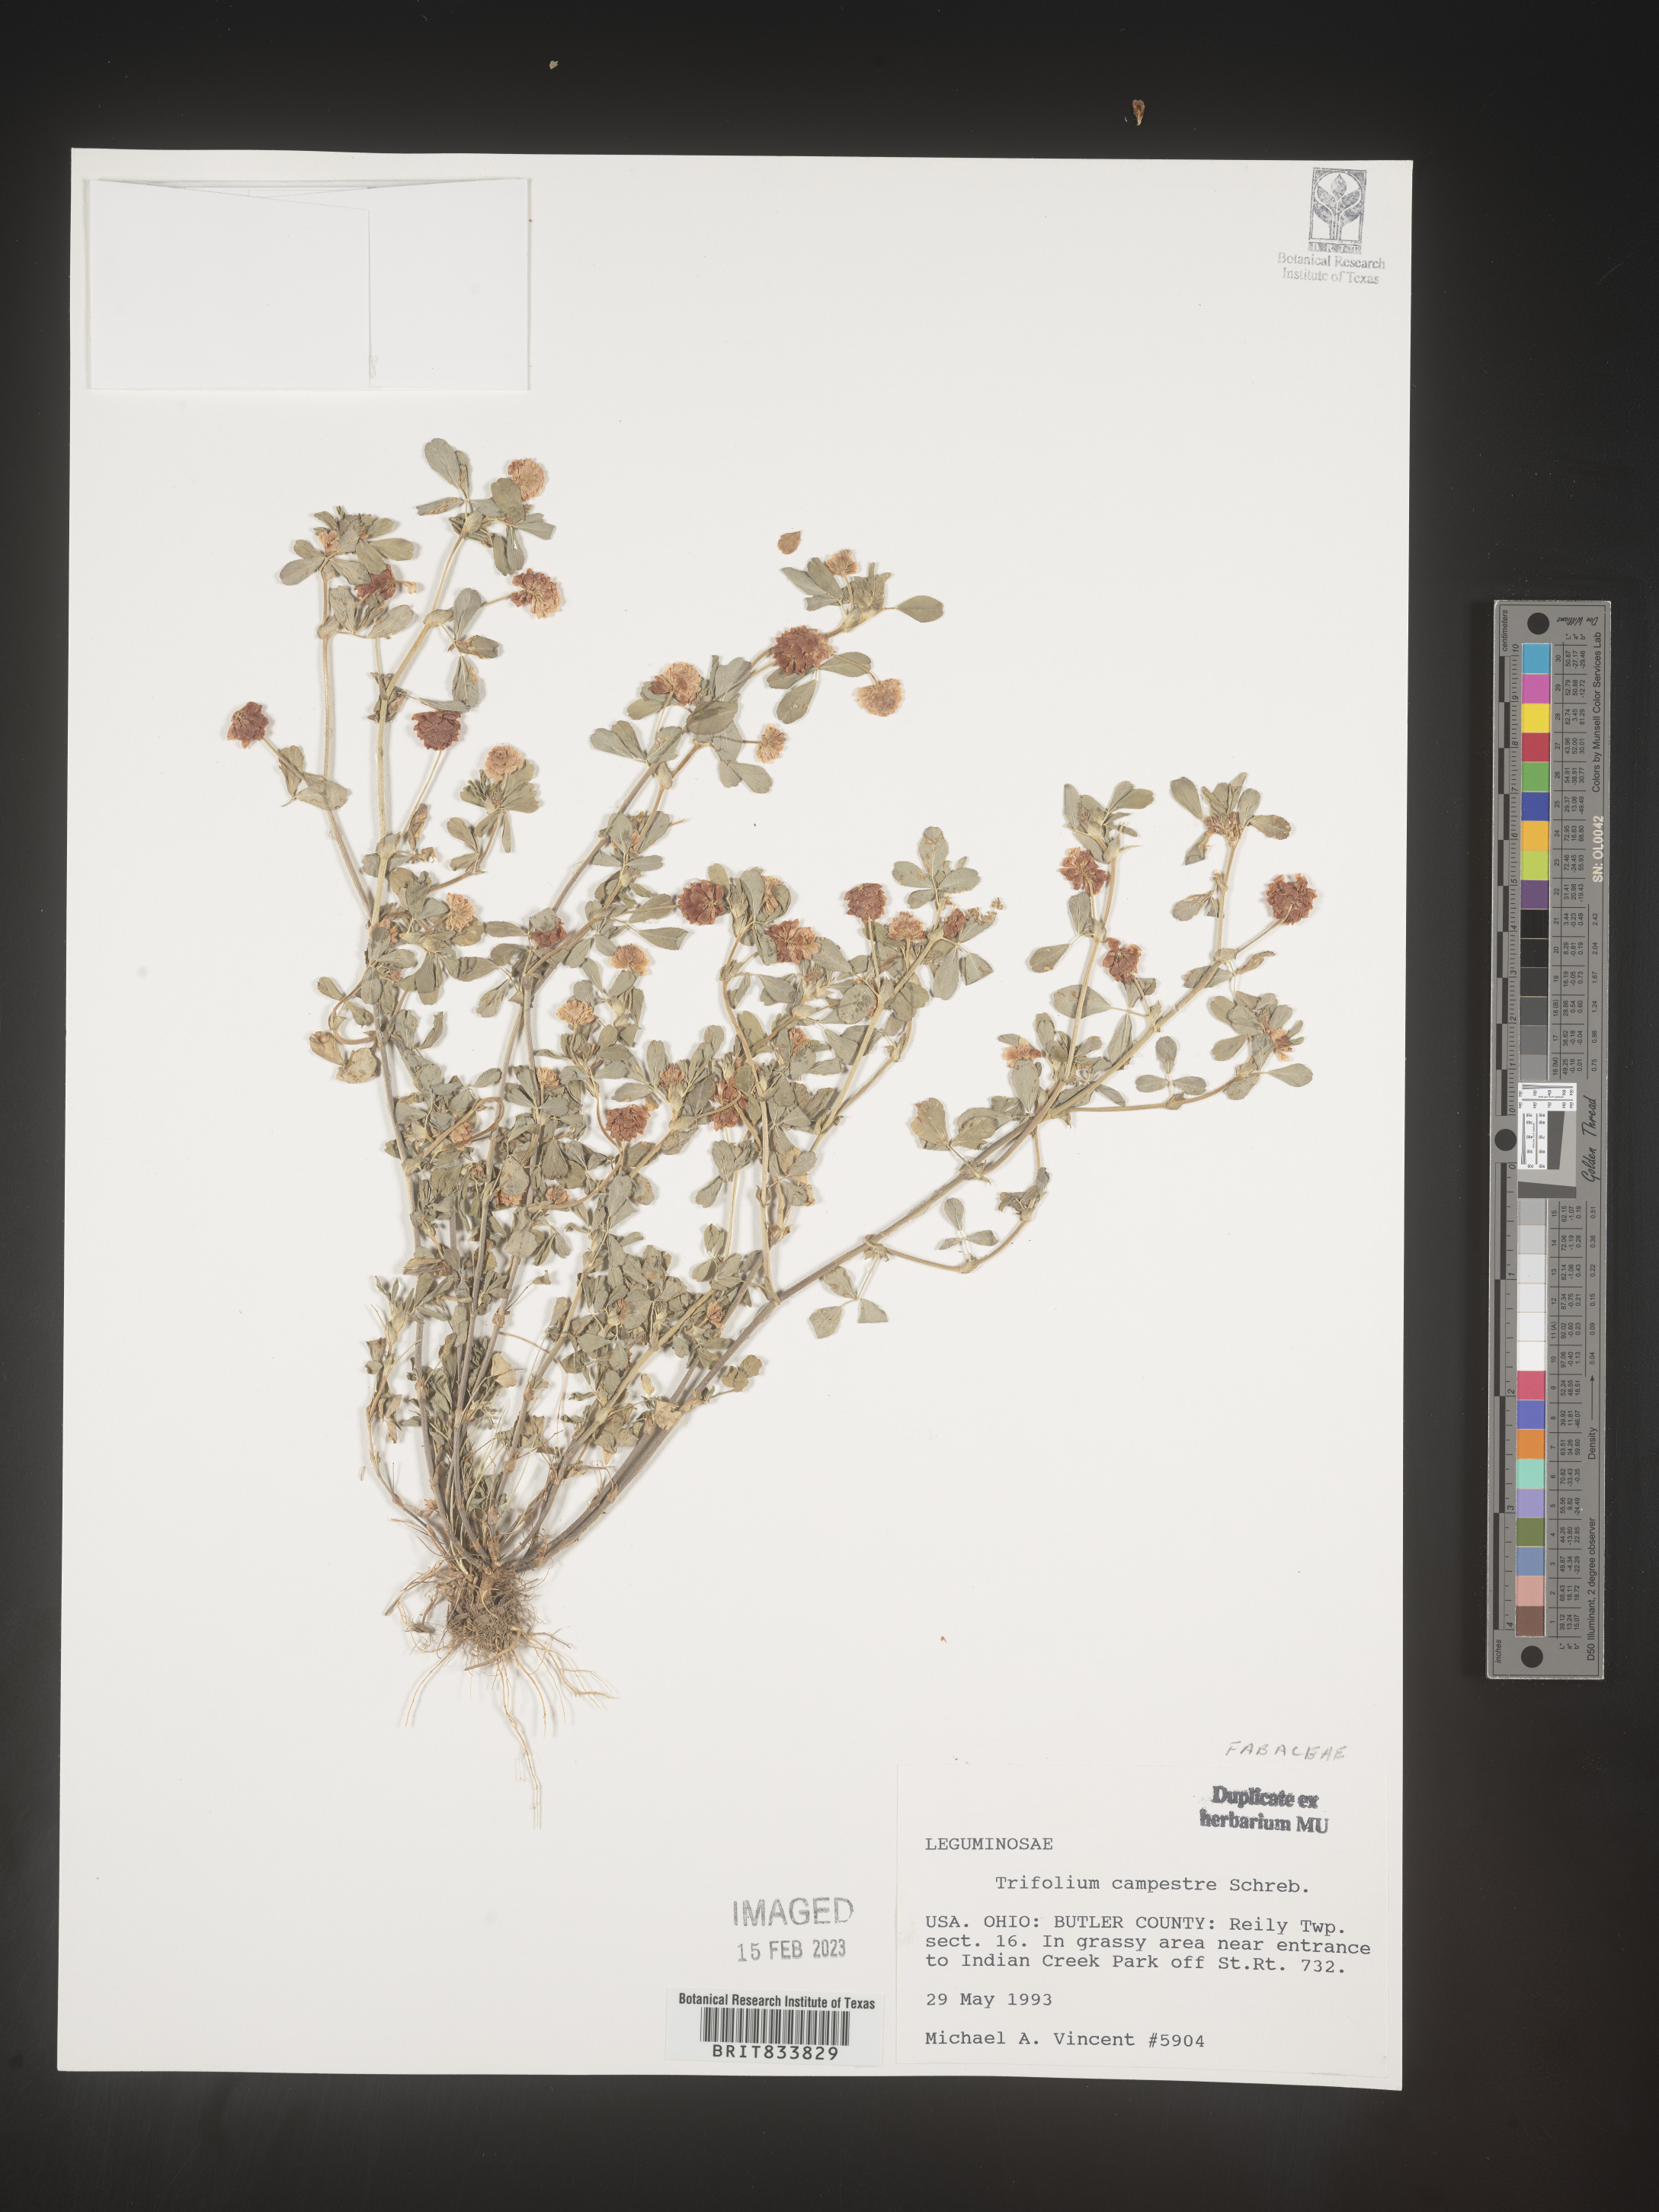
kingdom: Plantae
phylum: Tracheophyta
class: Magnoliopsida
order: Fabales
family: Fabaceae
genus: Trifolium
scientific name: Trifolium campestre
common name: Field clover
